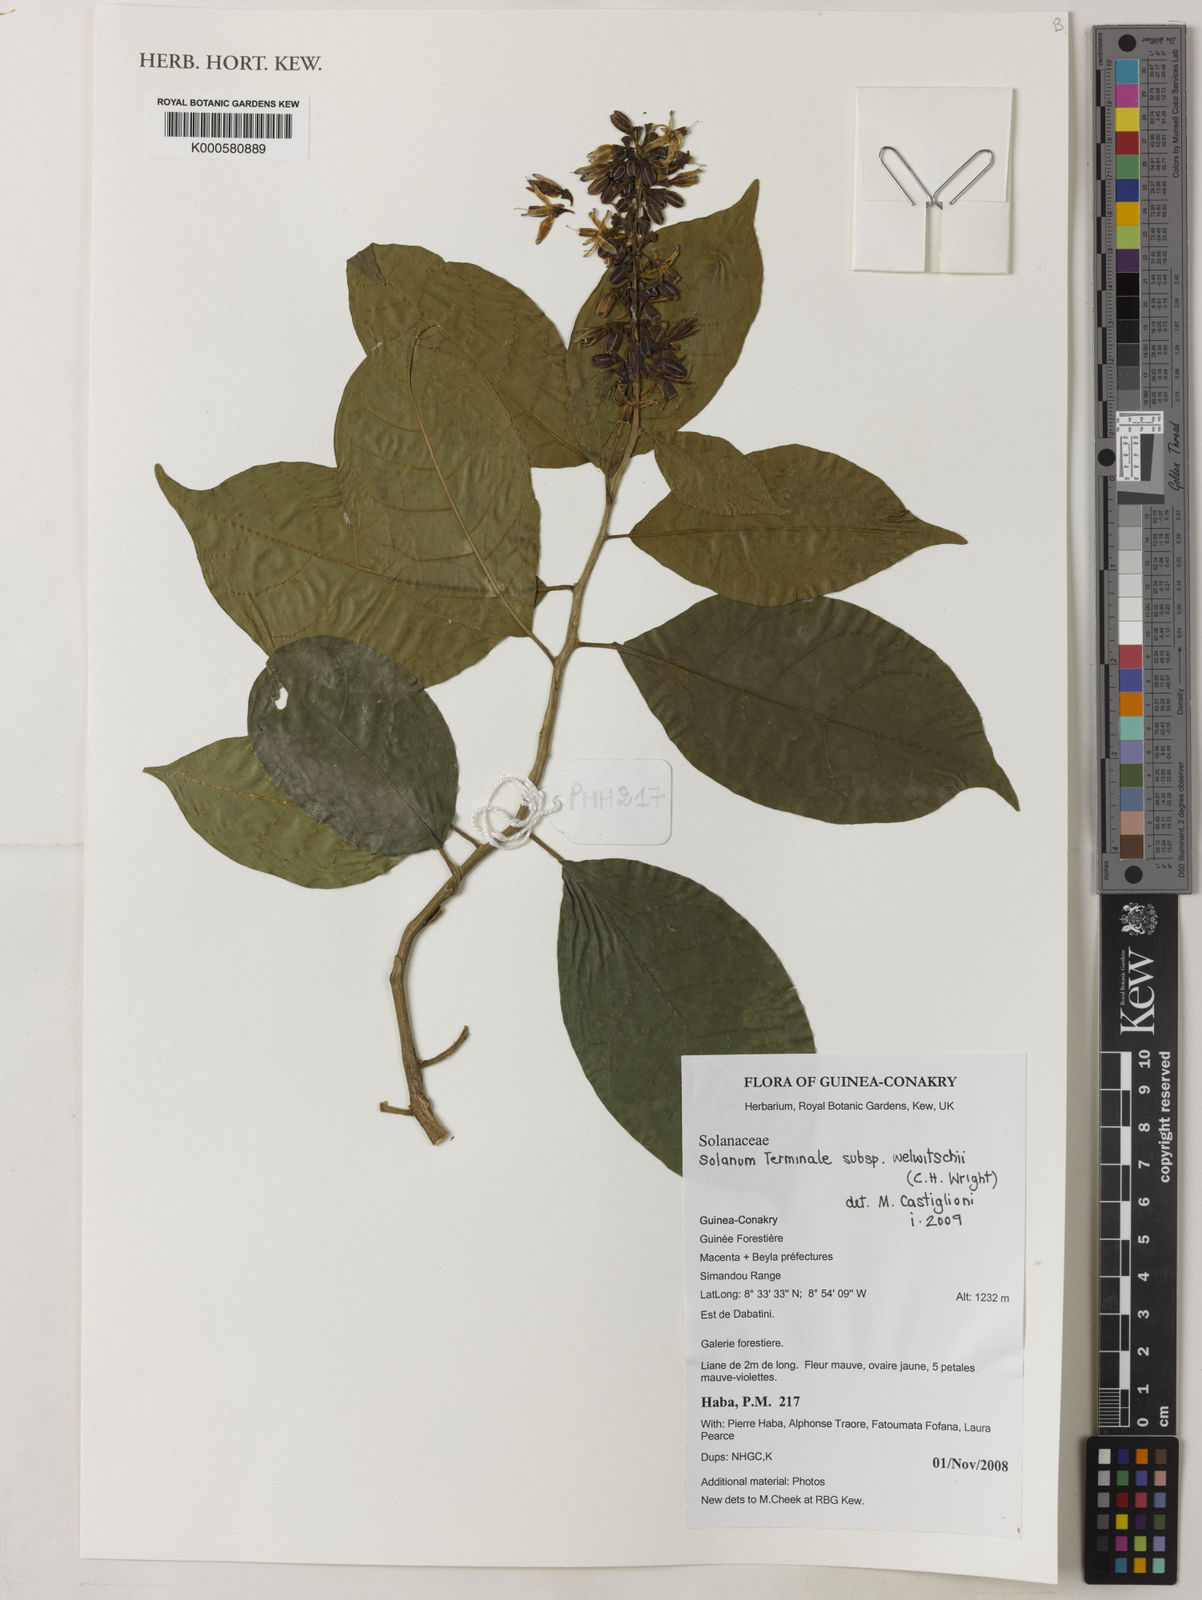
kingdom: Plantae
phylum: Tracheophyta
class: Magnoliopsida
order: Solanales
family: Solanaceae
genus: Solanum
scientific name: Solanum terminale
